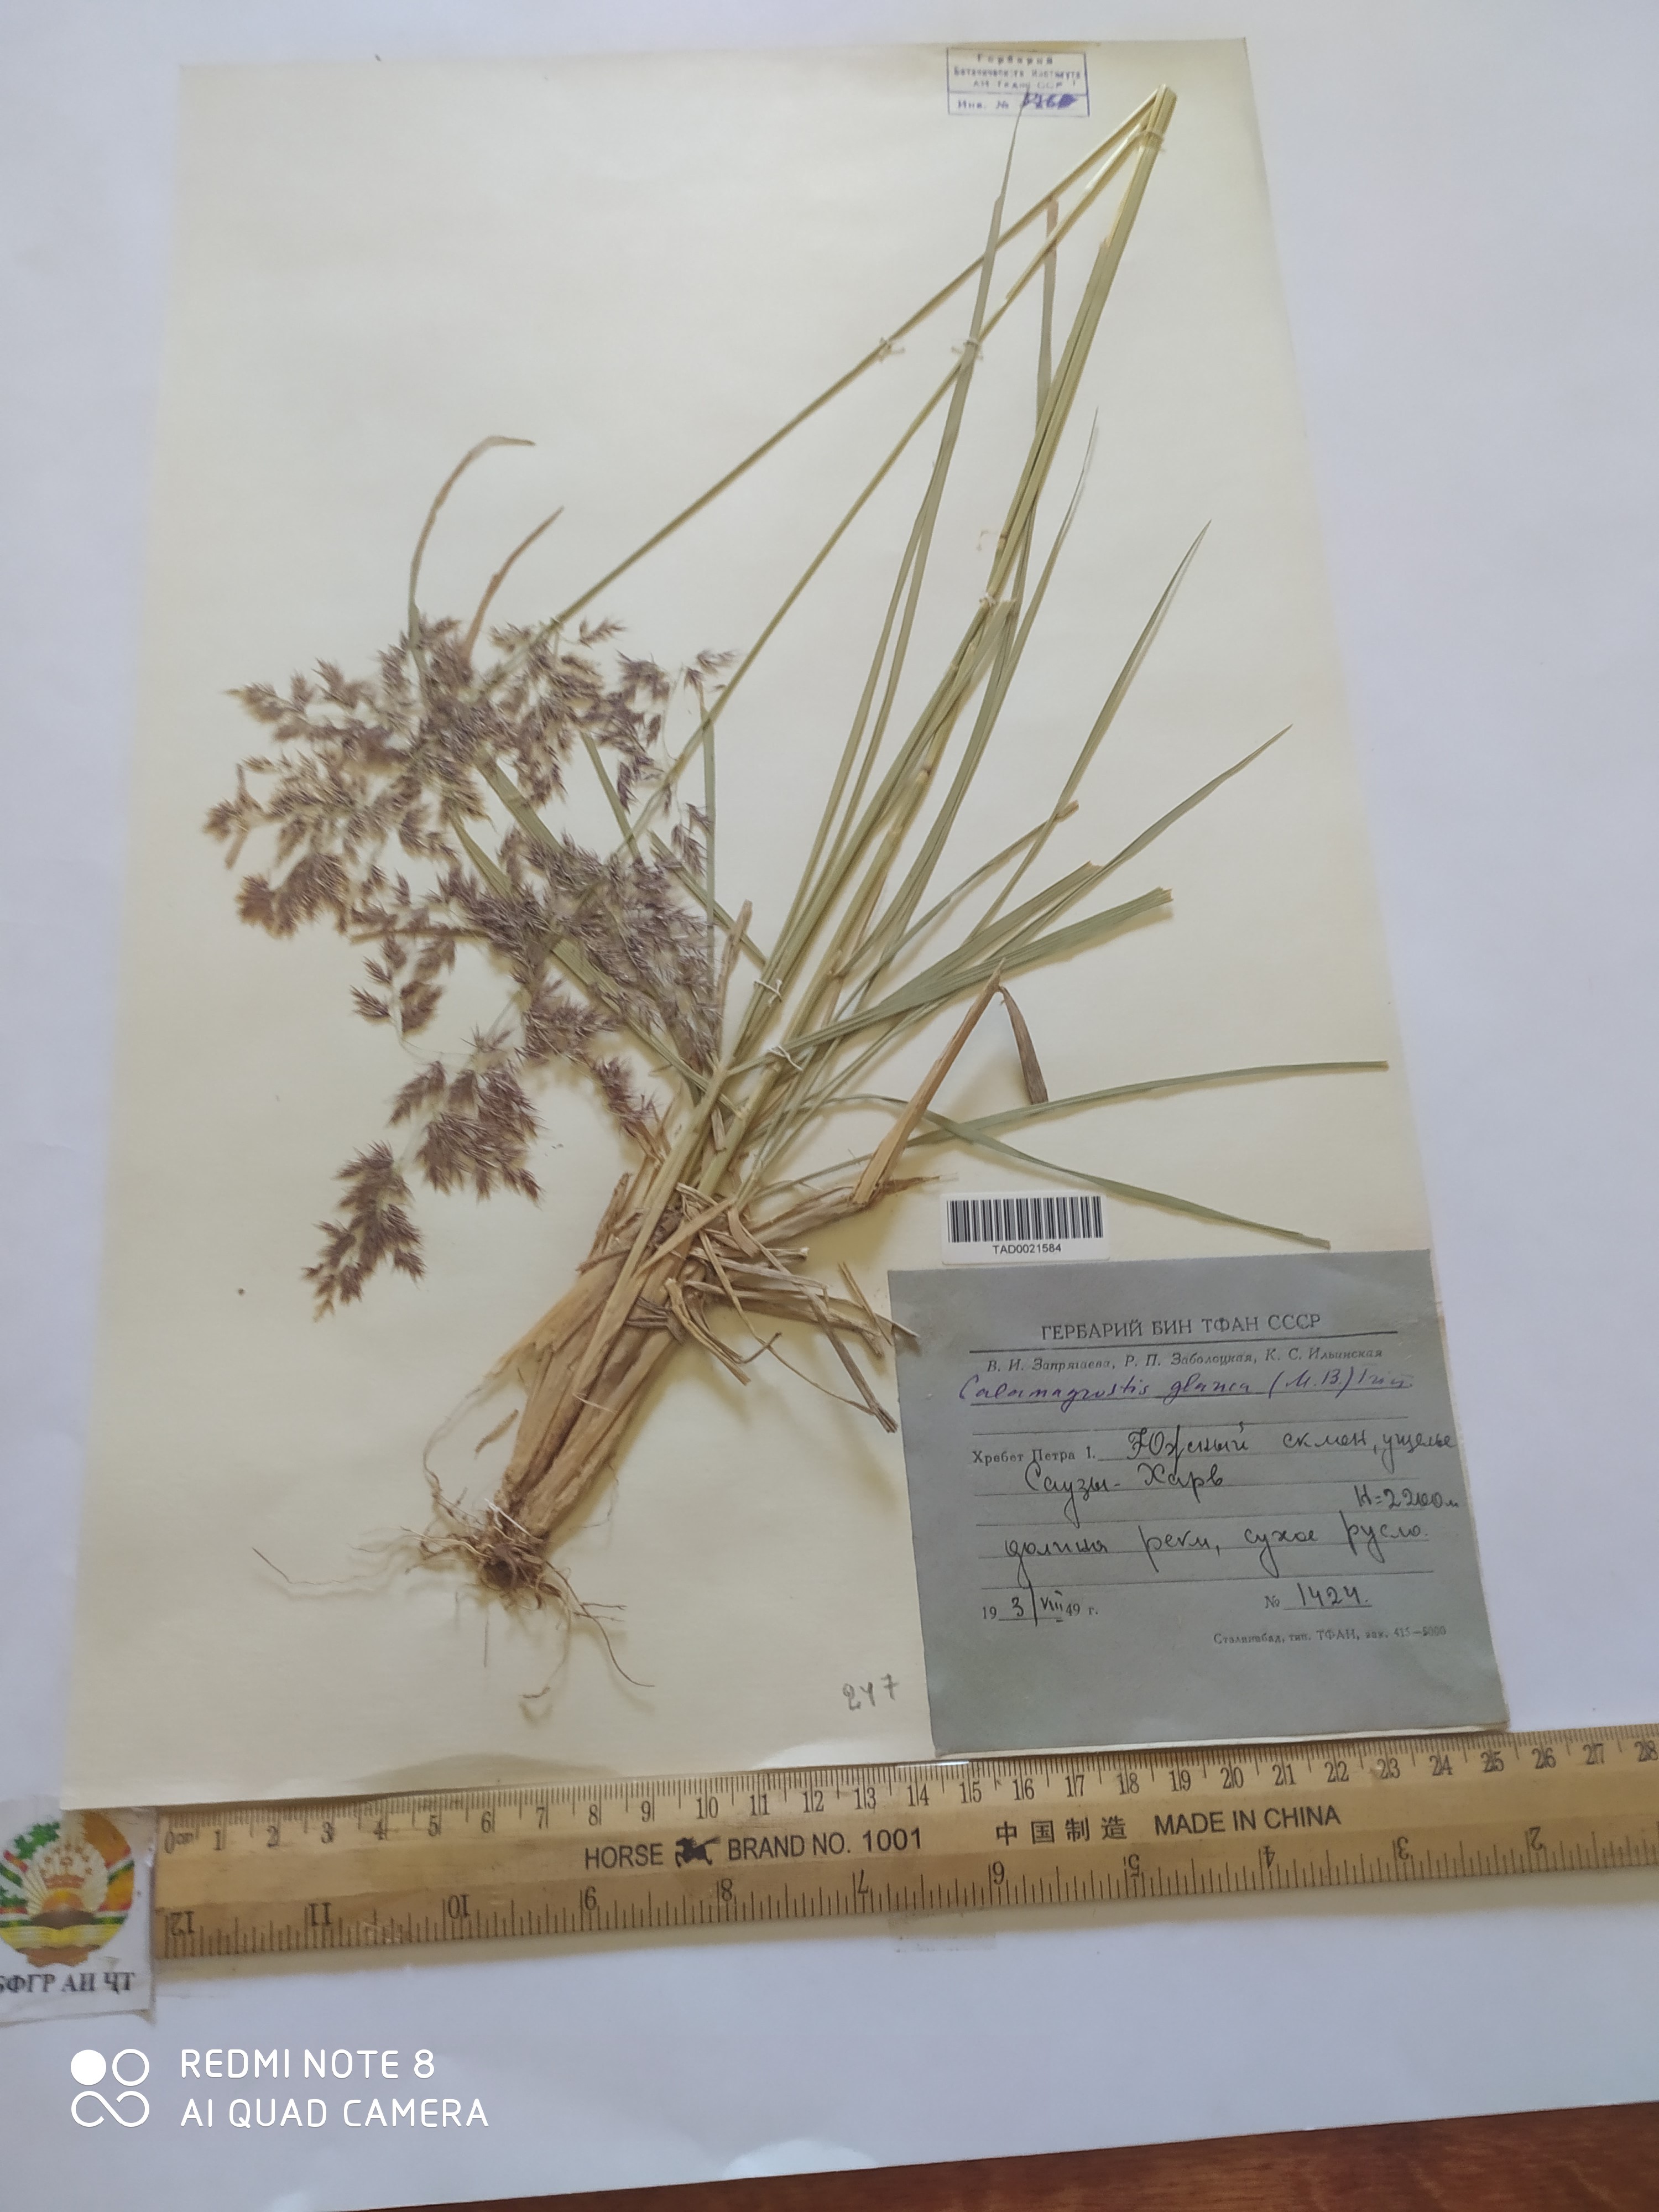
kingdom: Plantae
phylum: Tracheophyta
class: Liliopsida
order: Poales
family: Poaceae
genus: Calamagrostis
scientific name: Calamagrostis pseudophragmites
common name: Coastal small-reed
